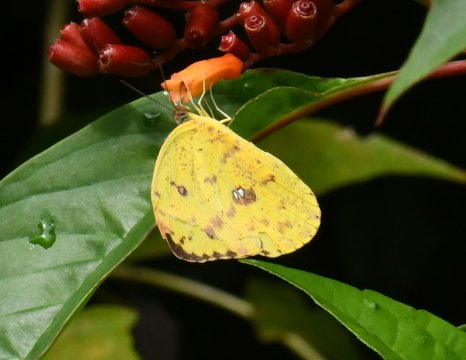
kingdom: Animalia
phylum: Arthropoda
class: Insecta
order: Lepidoptera
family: Pieridae
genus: Phoebis
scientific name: Phoebis argante
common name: Apricot Sulphur
